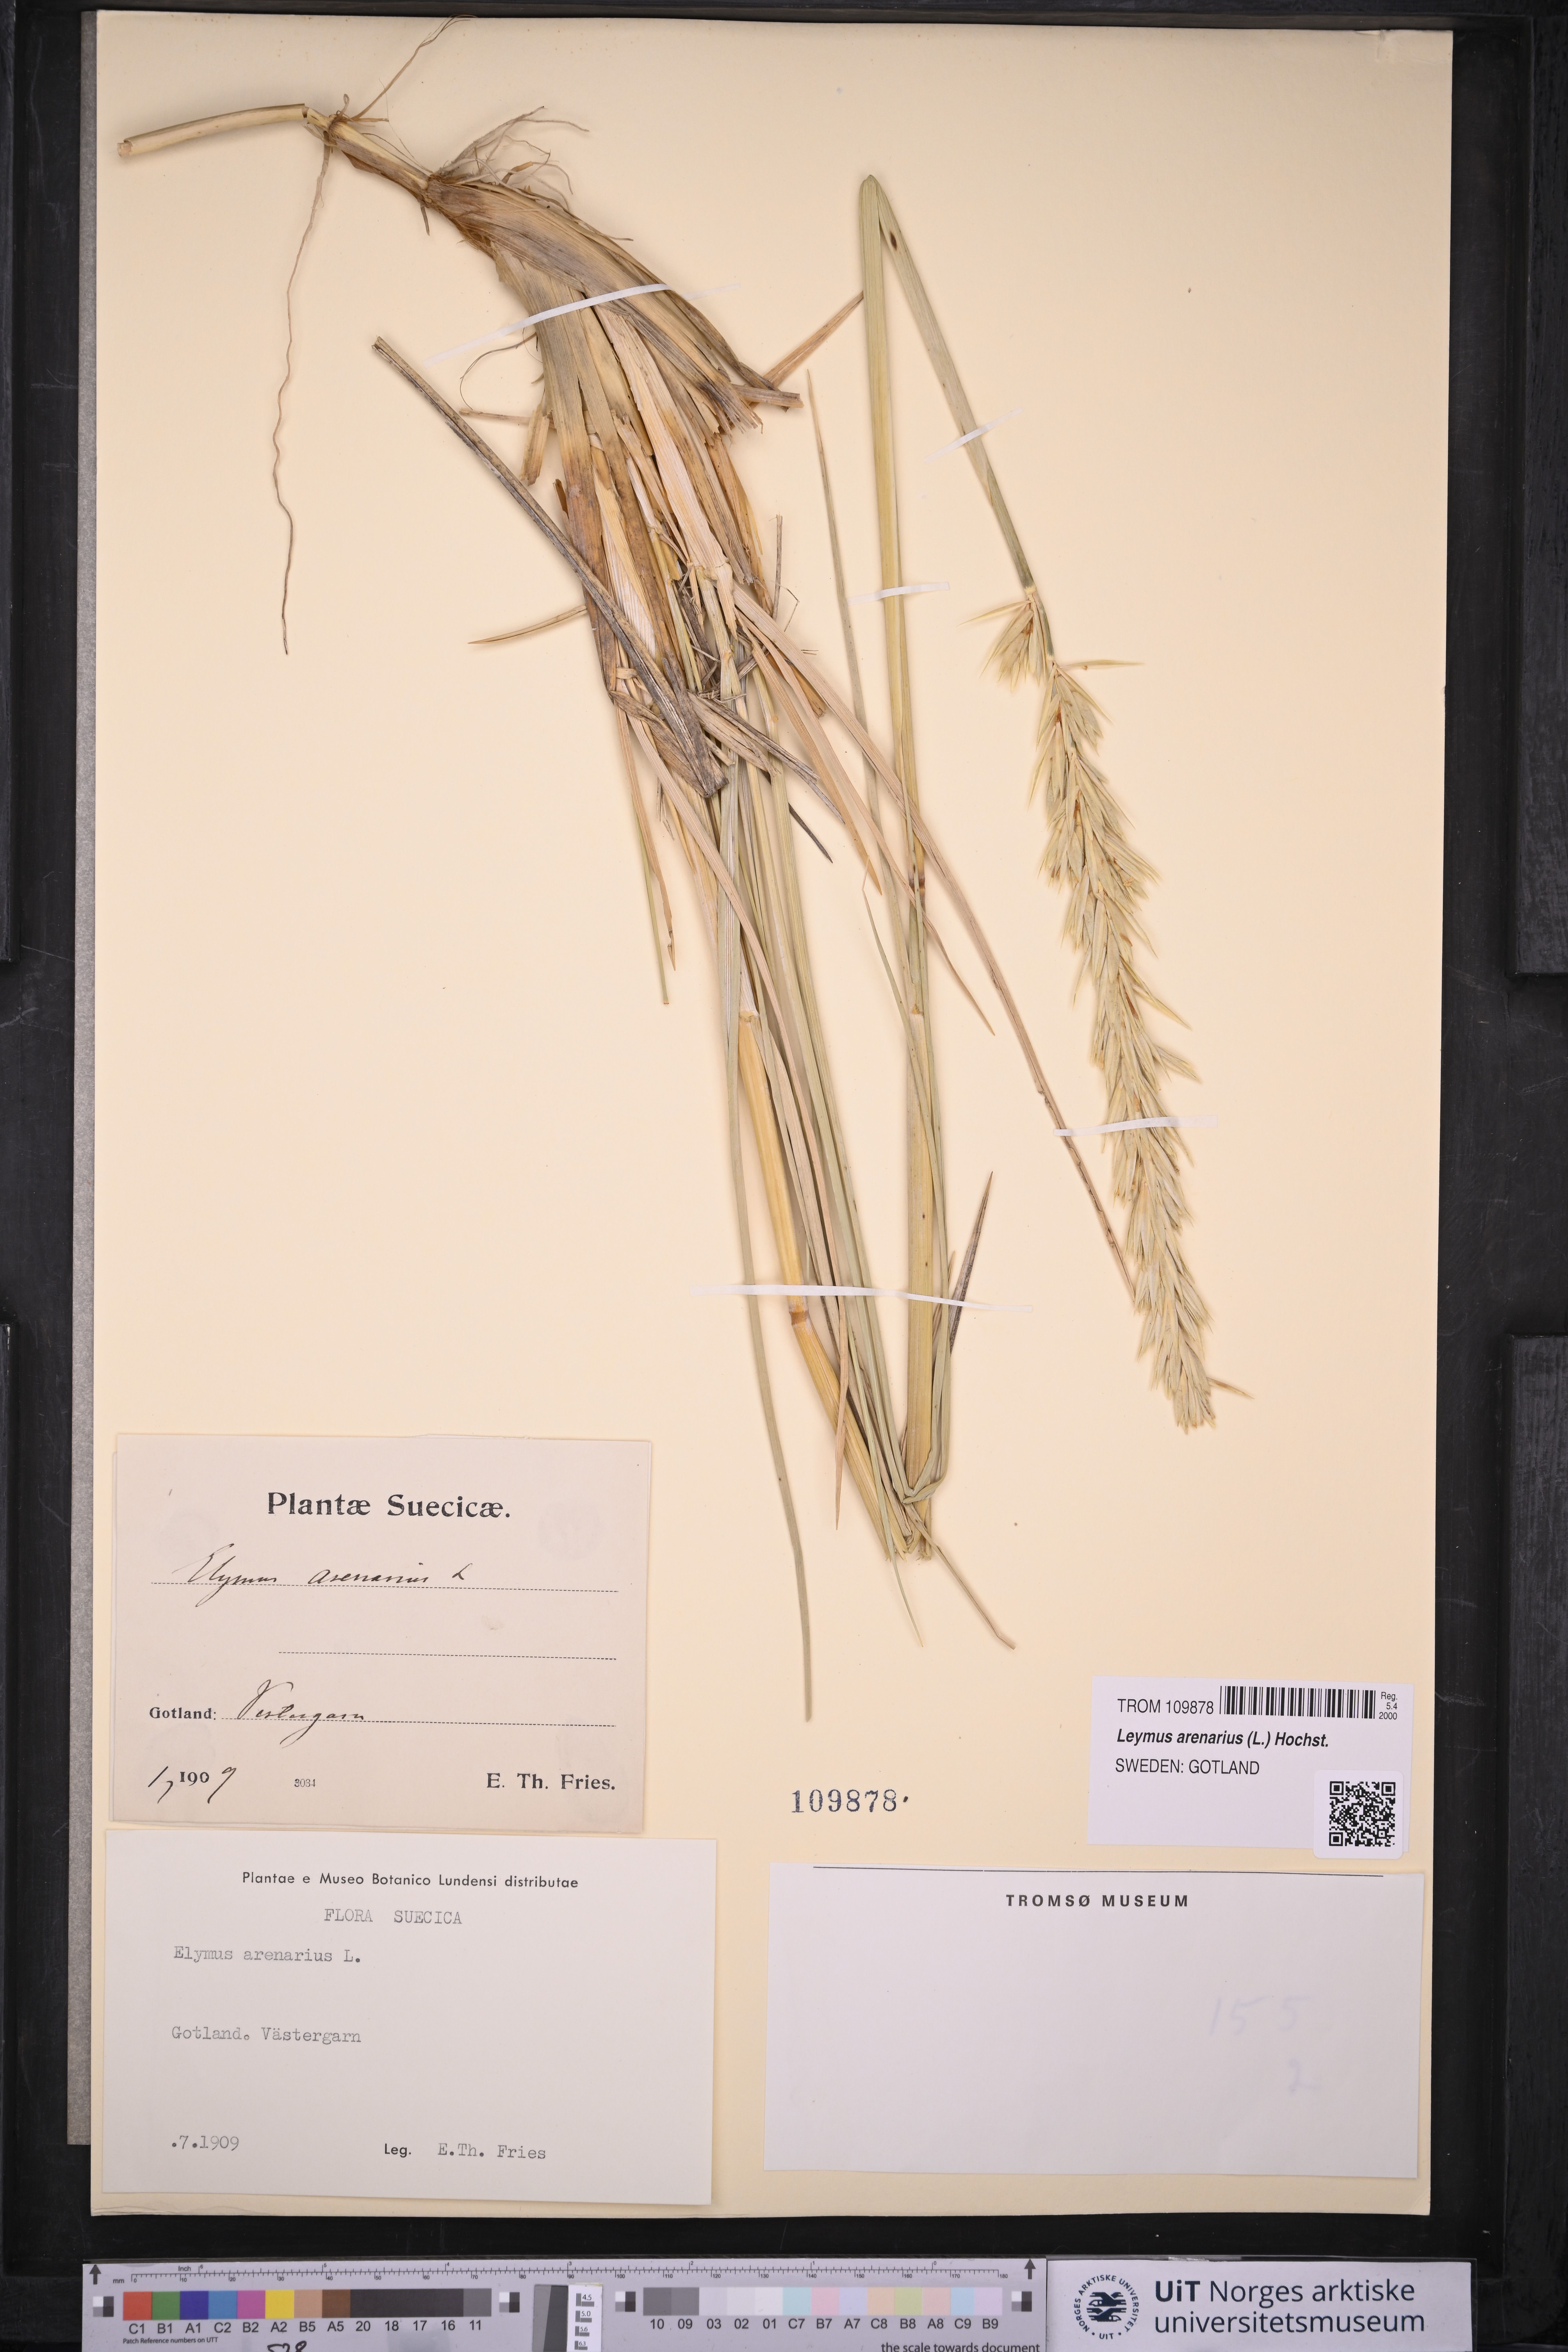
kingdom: Plantae
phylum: Tracheophyta
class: Liliopsida
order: Poales
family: Poaceae
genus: Leymus
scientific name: Leymus arenarius
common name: Lyme-grass
